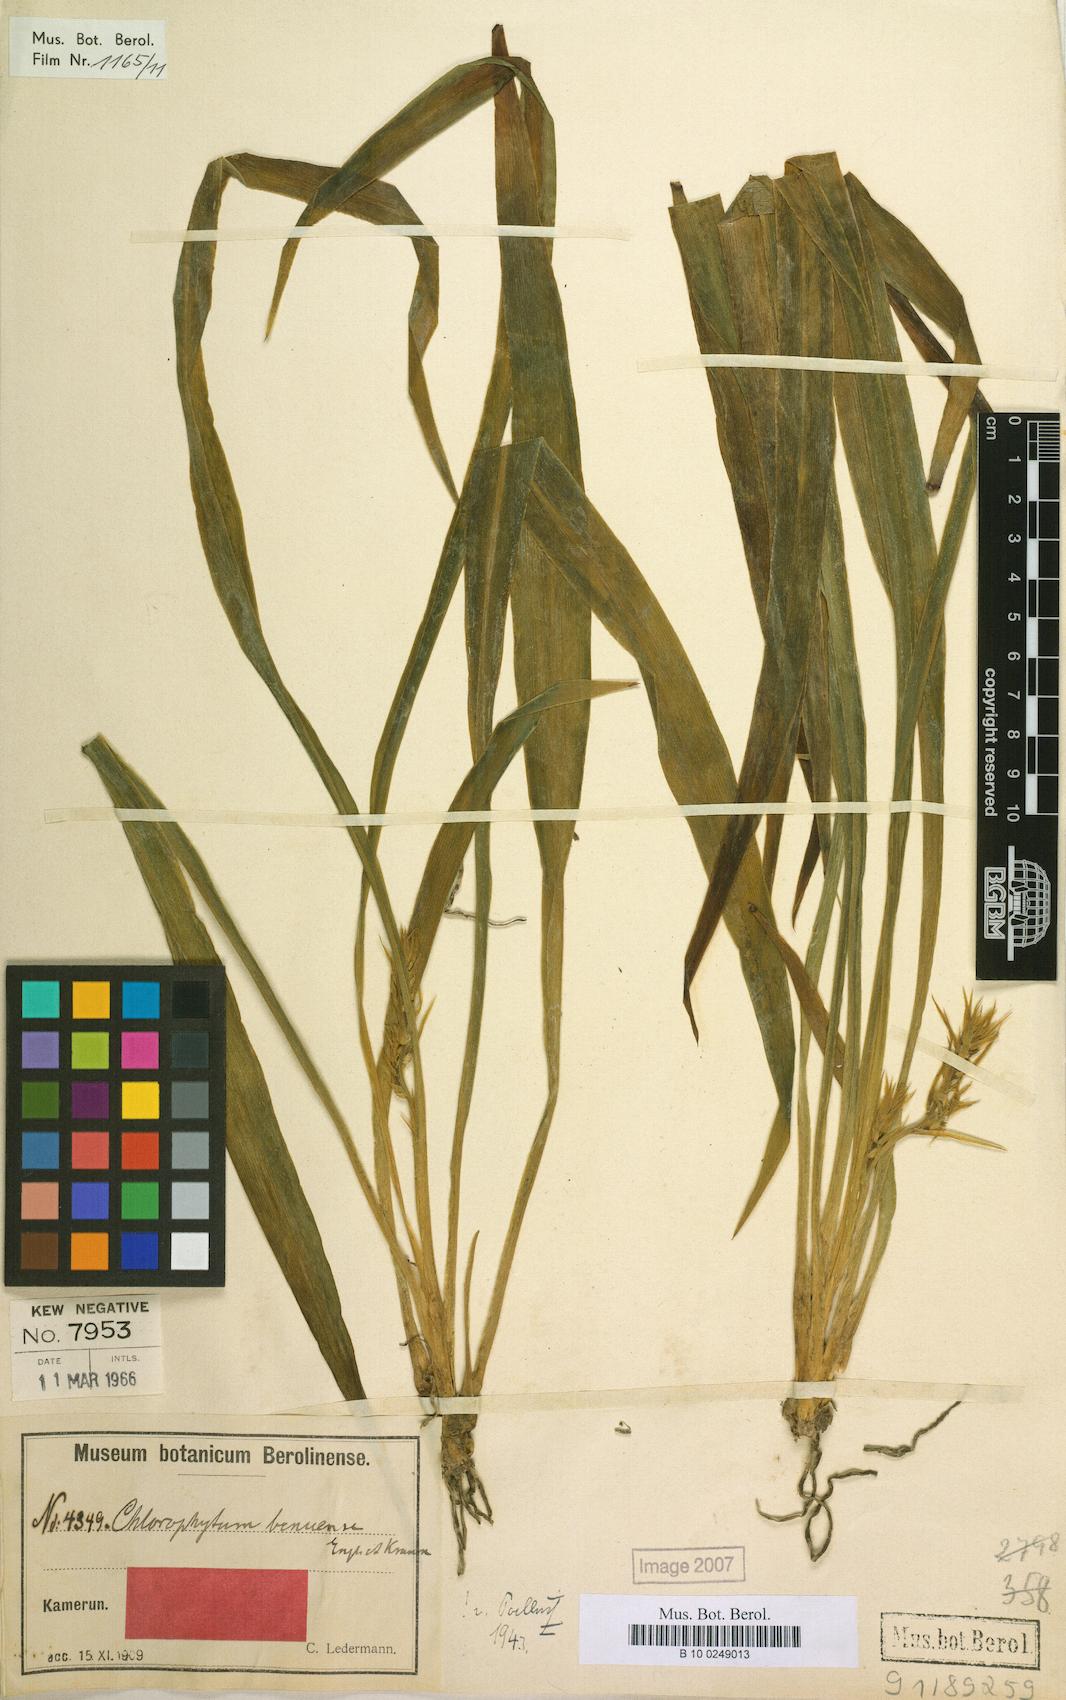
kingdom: Plantae
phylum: Tracheophyta
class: Liliopsida
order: Asparagales
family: Asparagaceae
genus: Chlorophytum
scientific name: Chlorophytum benuense
